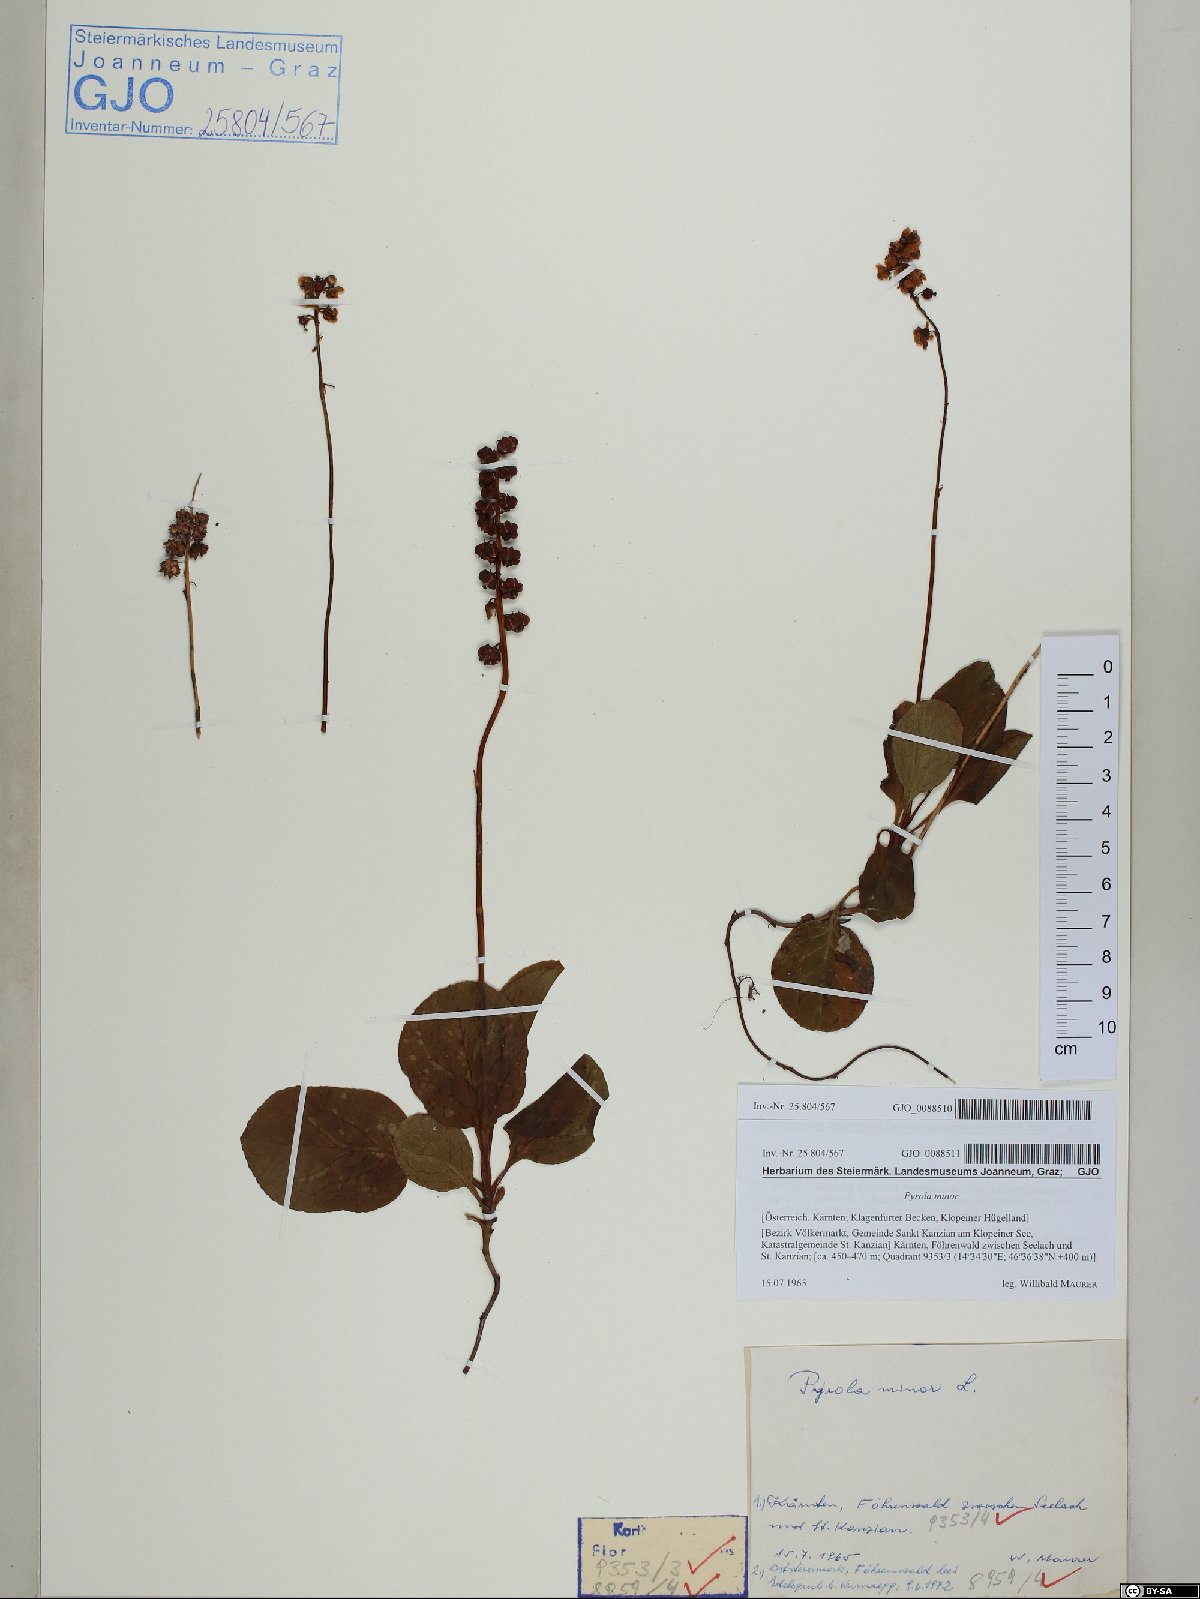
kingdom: Plantae
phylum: Tracheophyta
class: Magnoliopsida
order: Ericales
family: Ericaceae
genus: Pyrola
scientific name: Pyrola minor
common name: Common wintergreen
